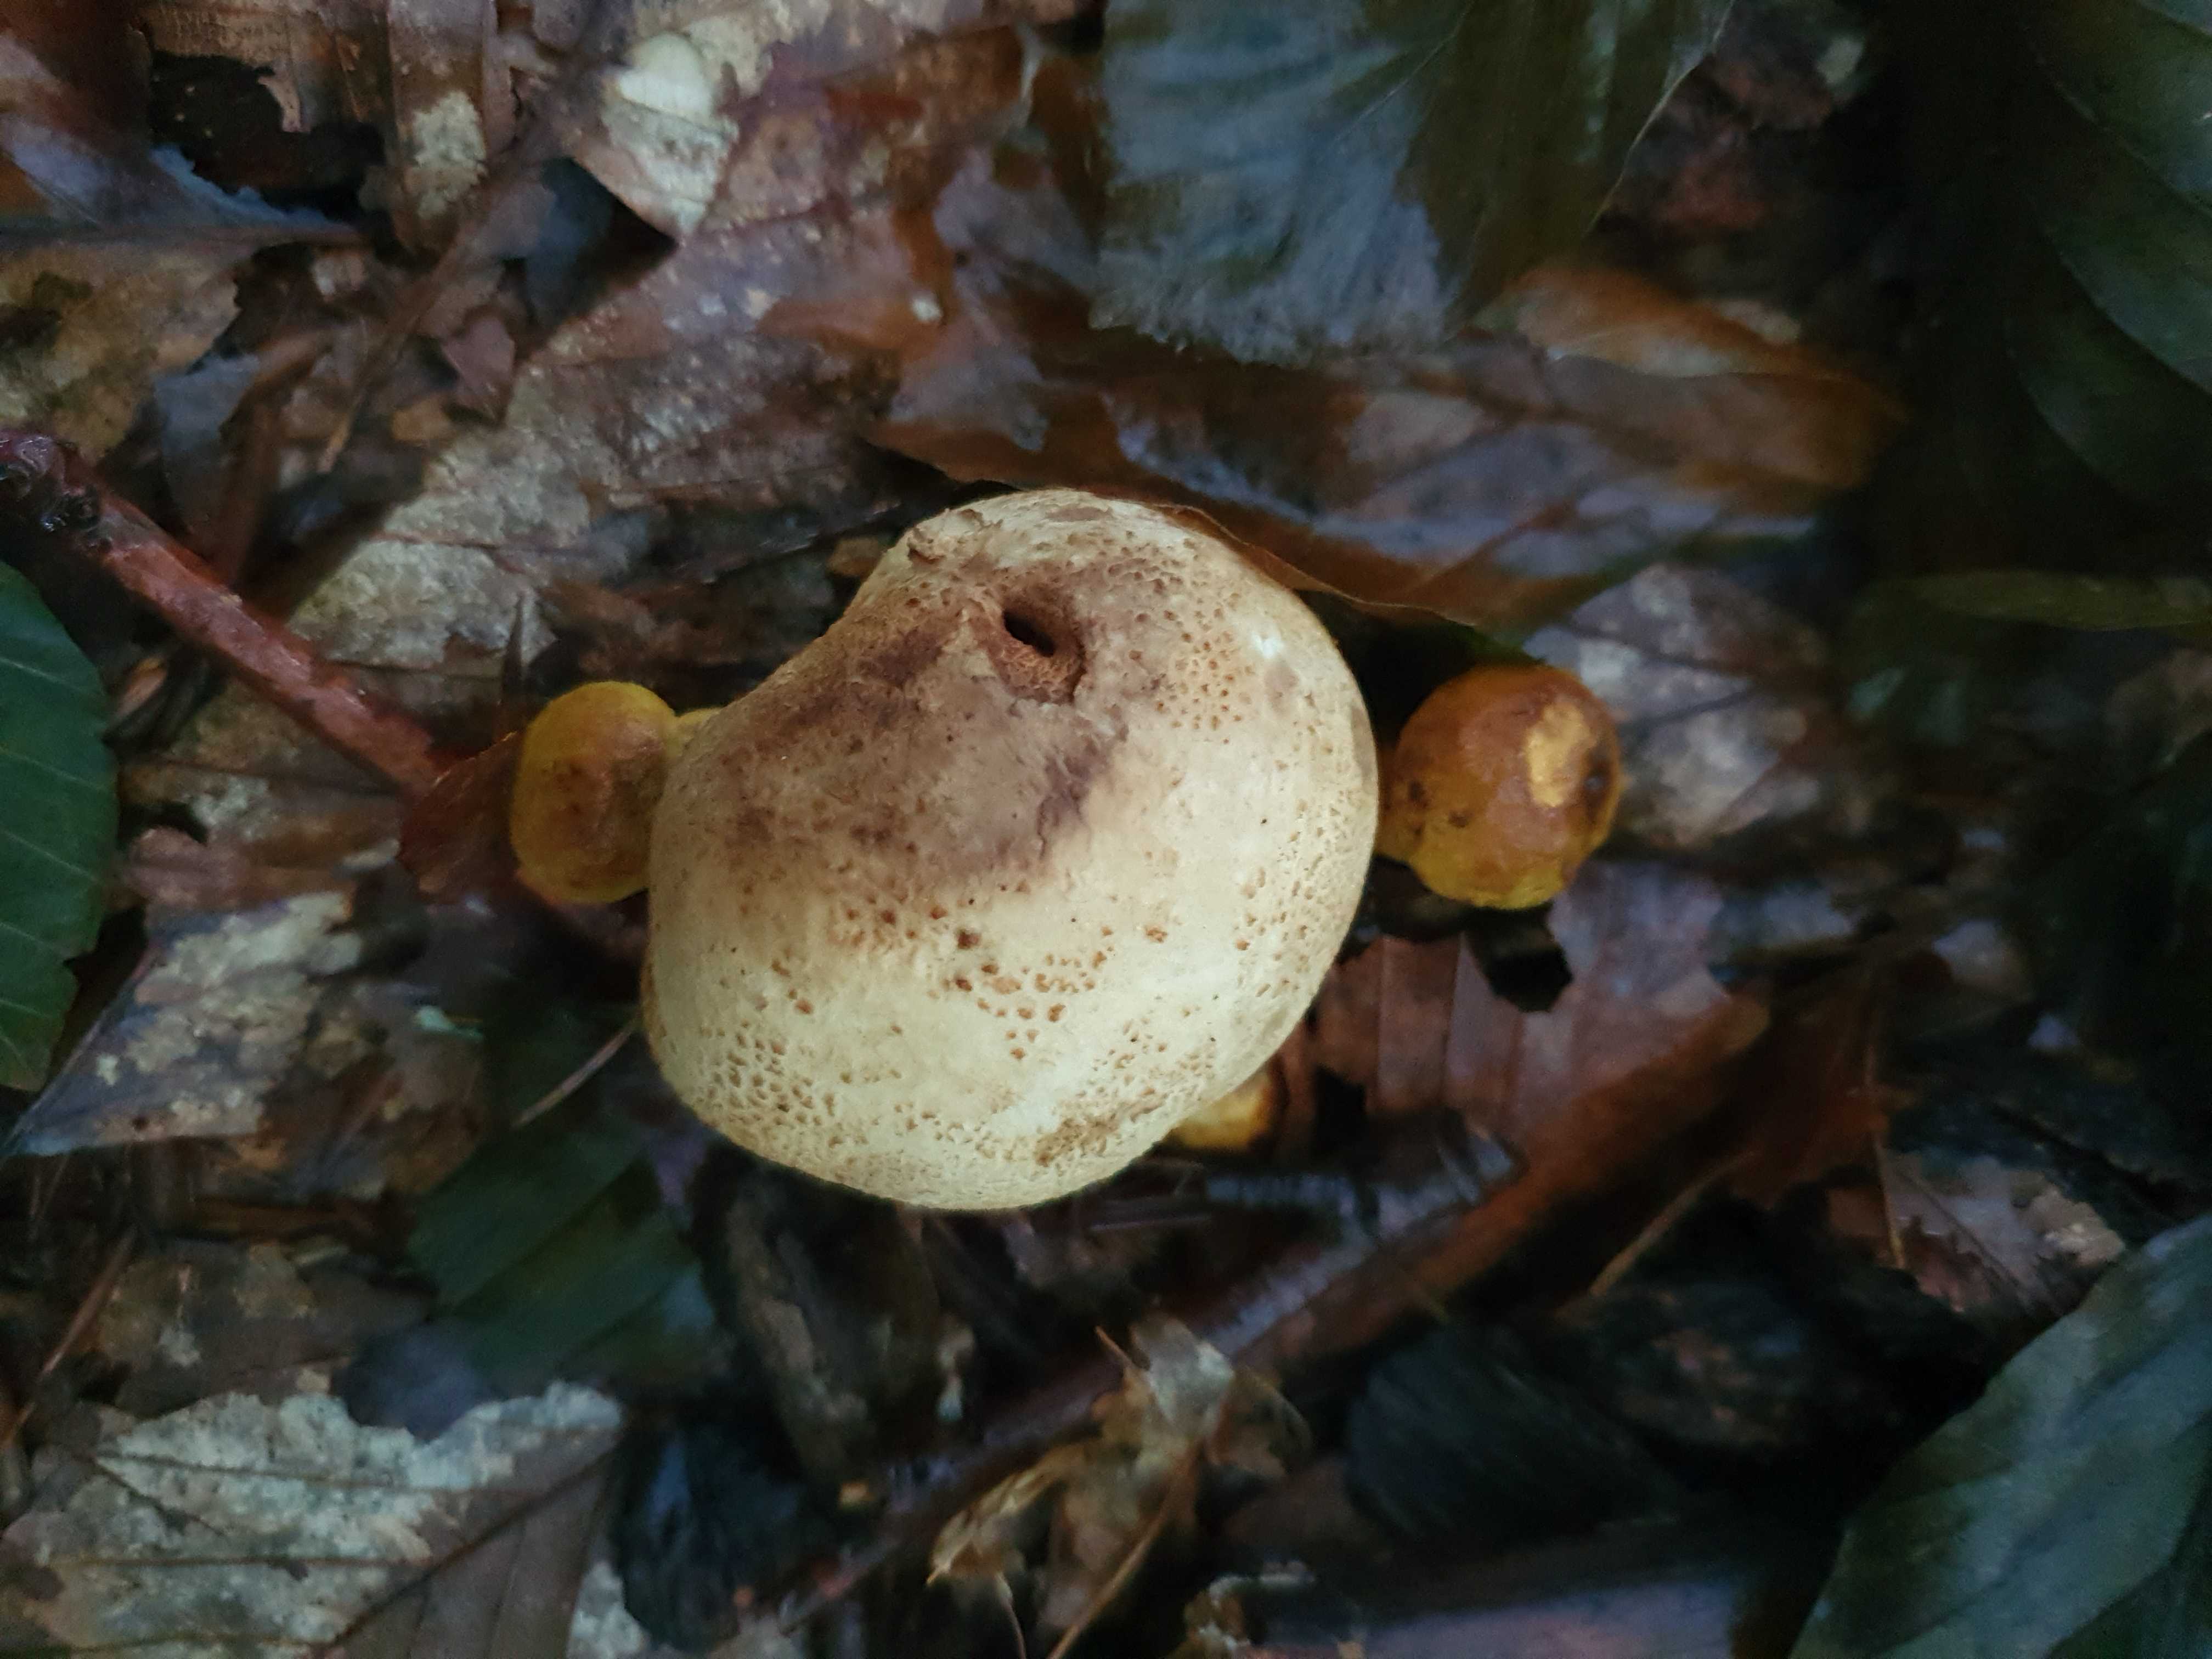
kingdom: Fungi
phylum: Basidiomycota
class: Agaricomycetes
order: Boletales
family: Boletaceae
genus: Pseudoboletus
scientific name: Pseudoboletus parasiticus
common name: snyltende rørhat
